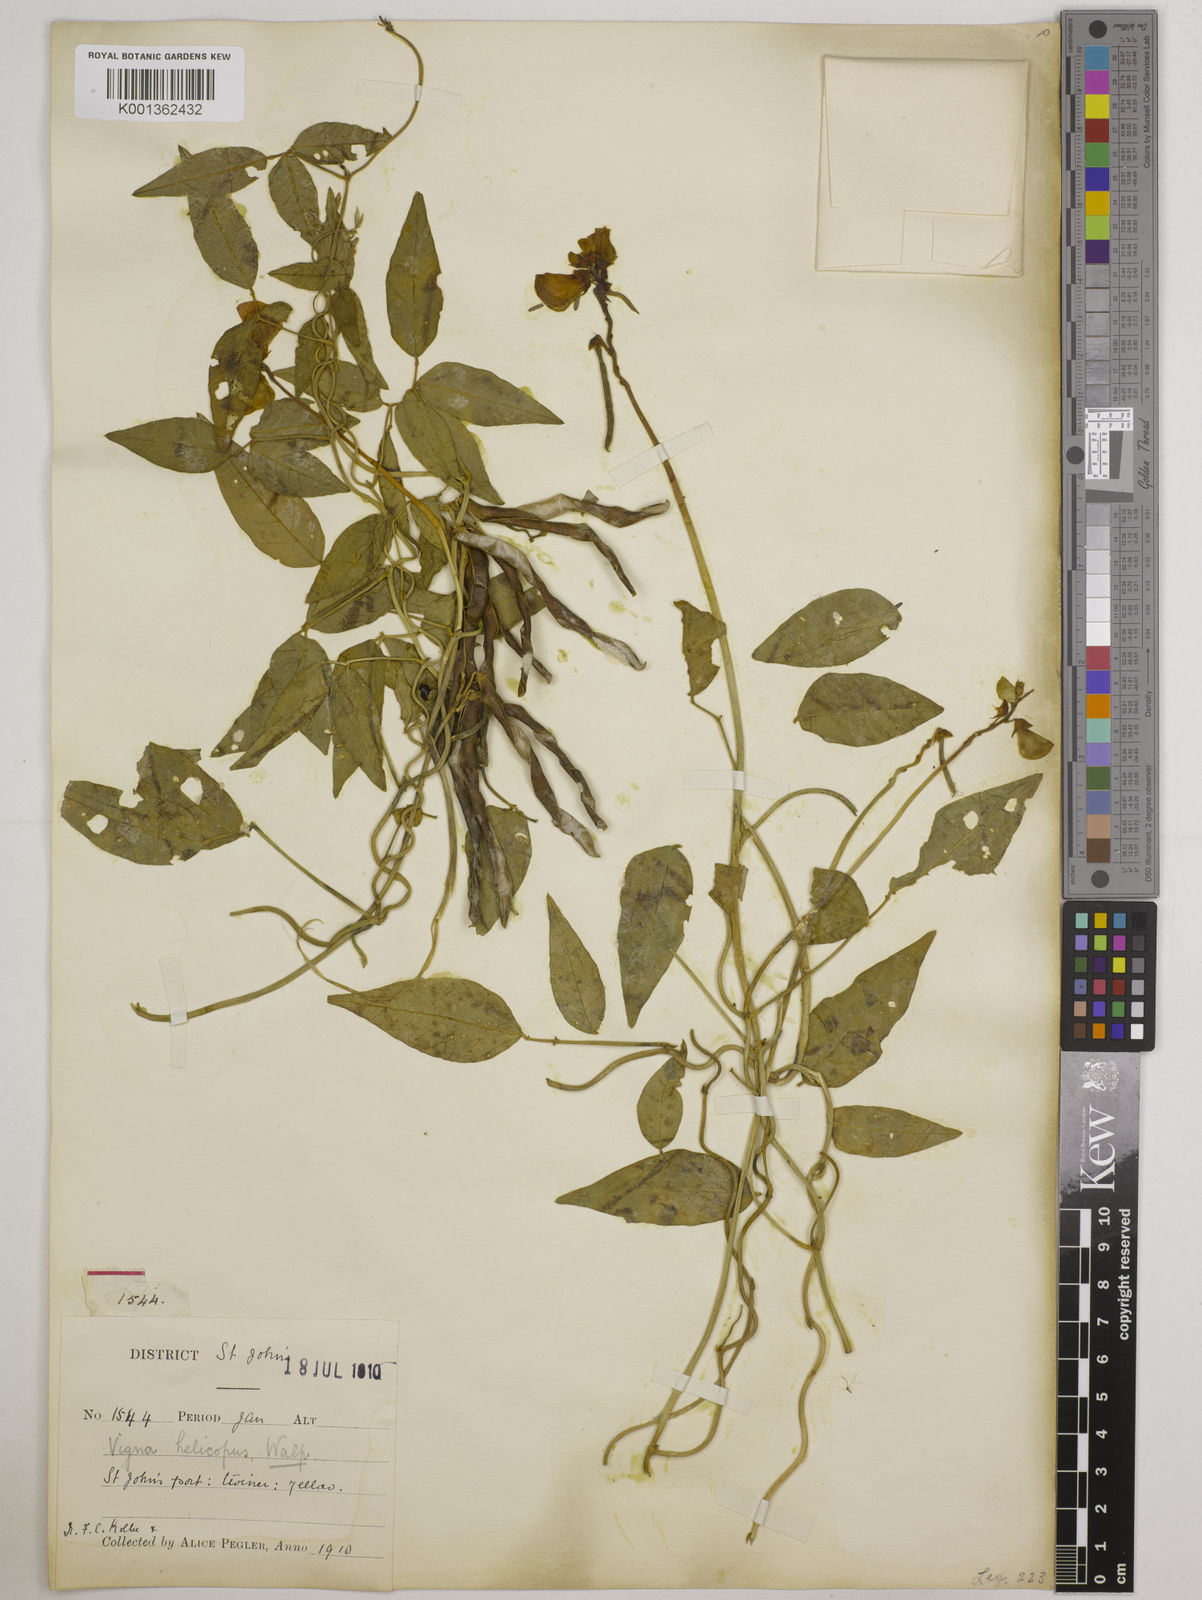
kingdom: Plantae
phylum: Tracheophyta
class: Magnoliopsida
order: Fabales
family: Fabaceae
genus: Vigna
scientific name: Vigna luteola
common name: Hairypod cowpea
